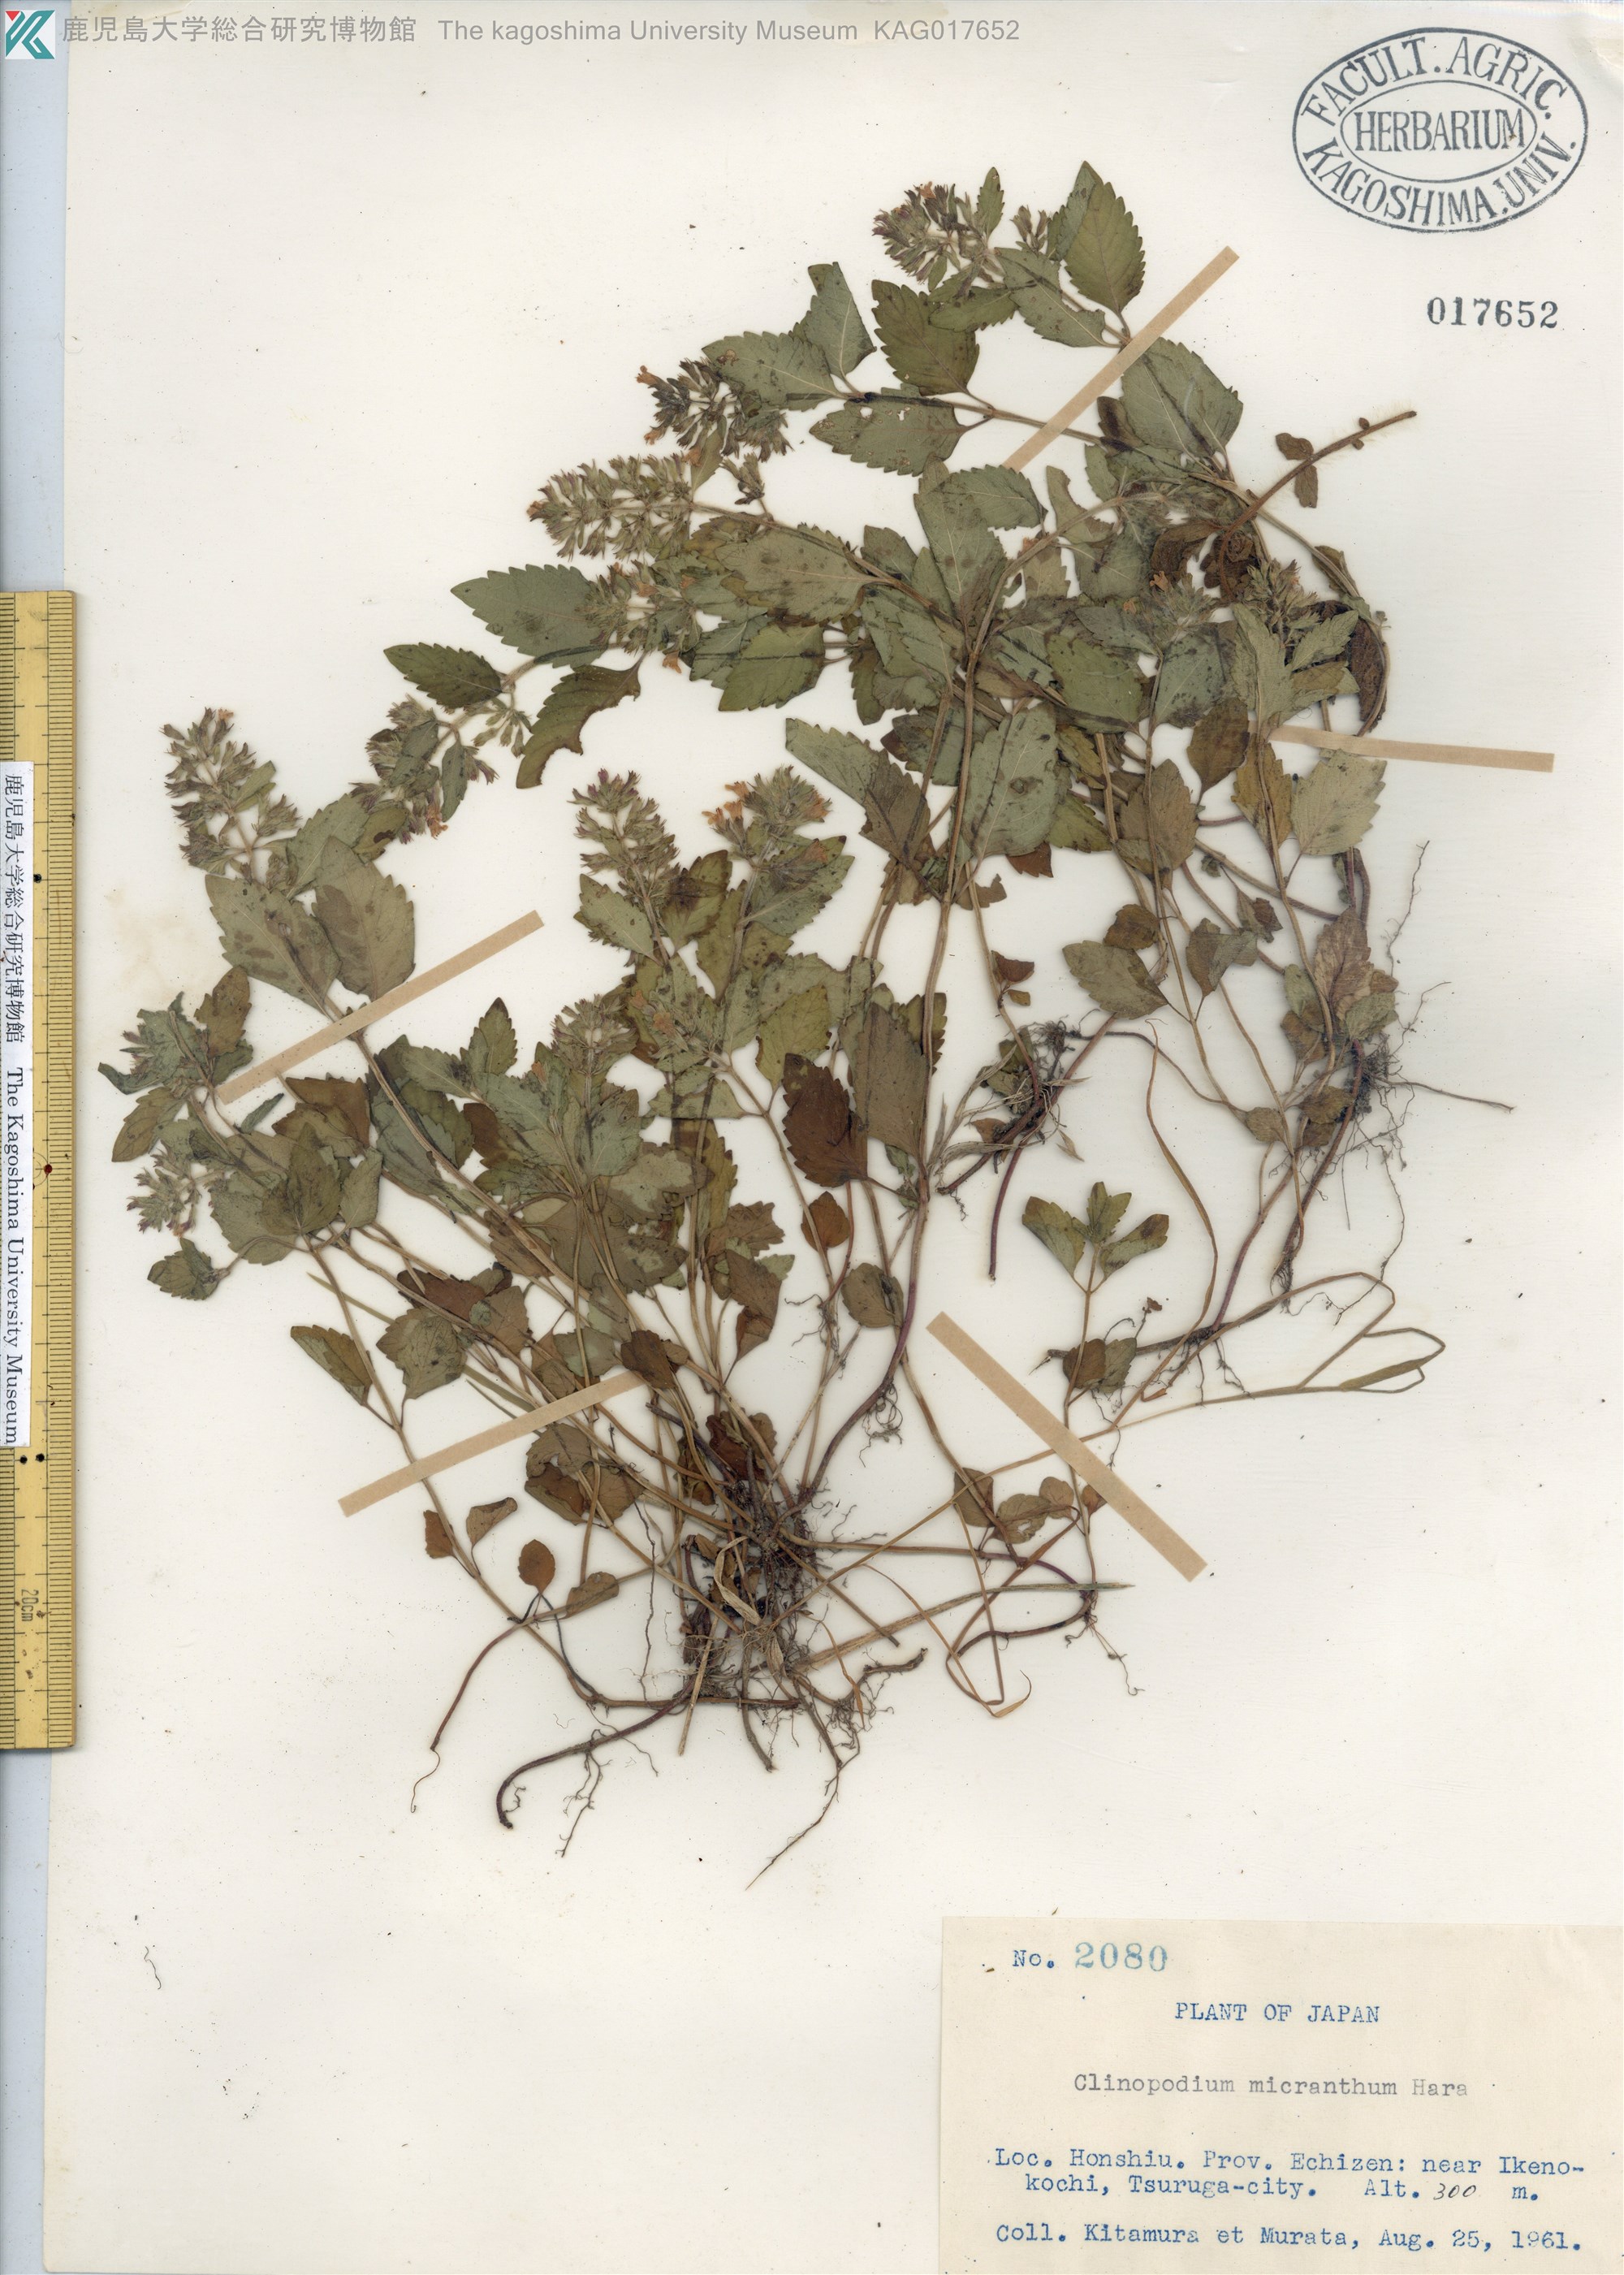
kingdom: Plantae
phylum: Tracheophyta
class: Magnoliopsida
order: Lamiales
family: Lamiaceae
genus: Clinopodium
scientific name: Clinopodium micranthum
